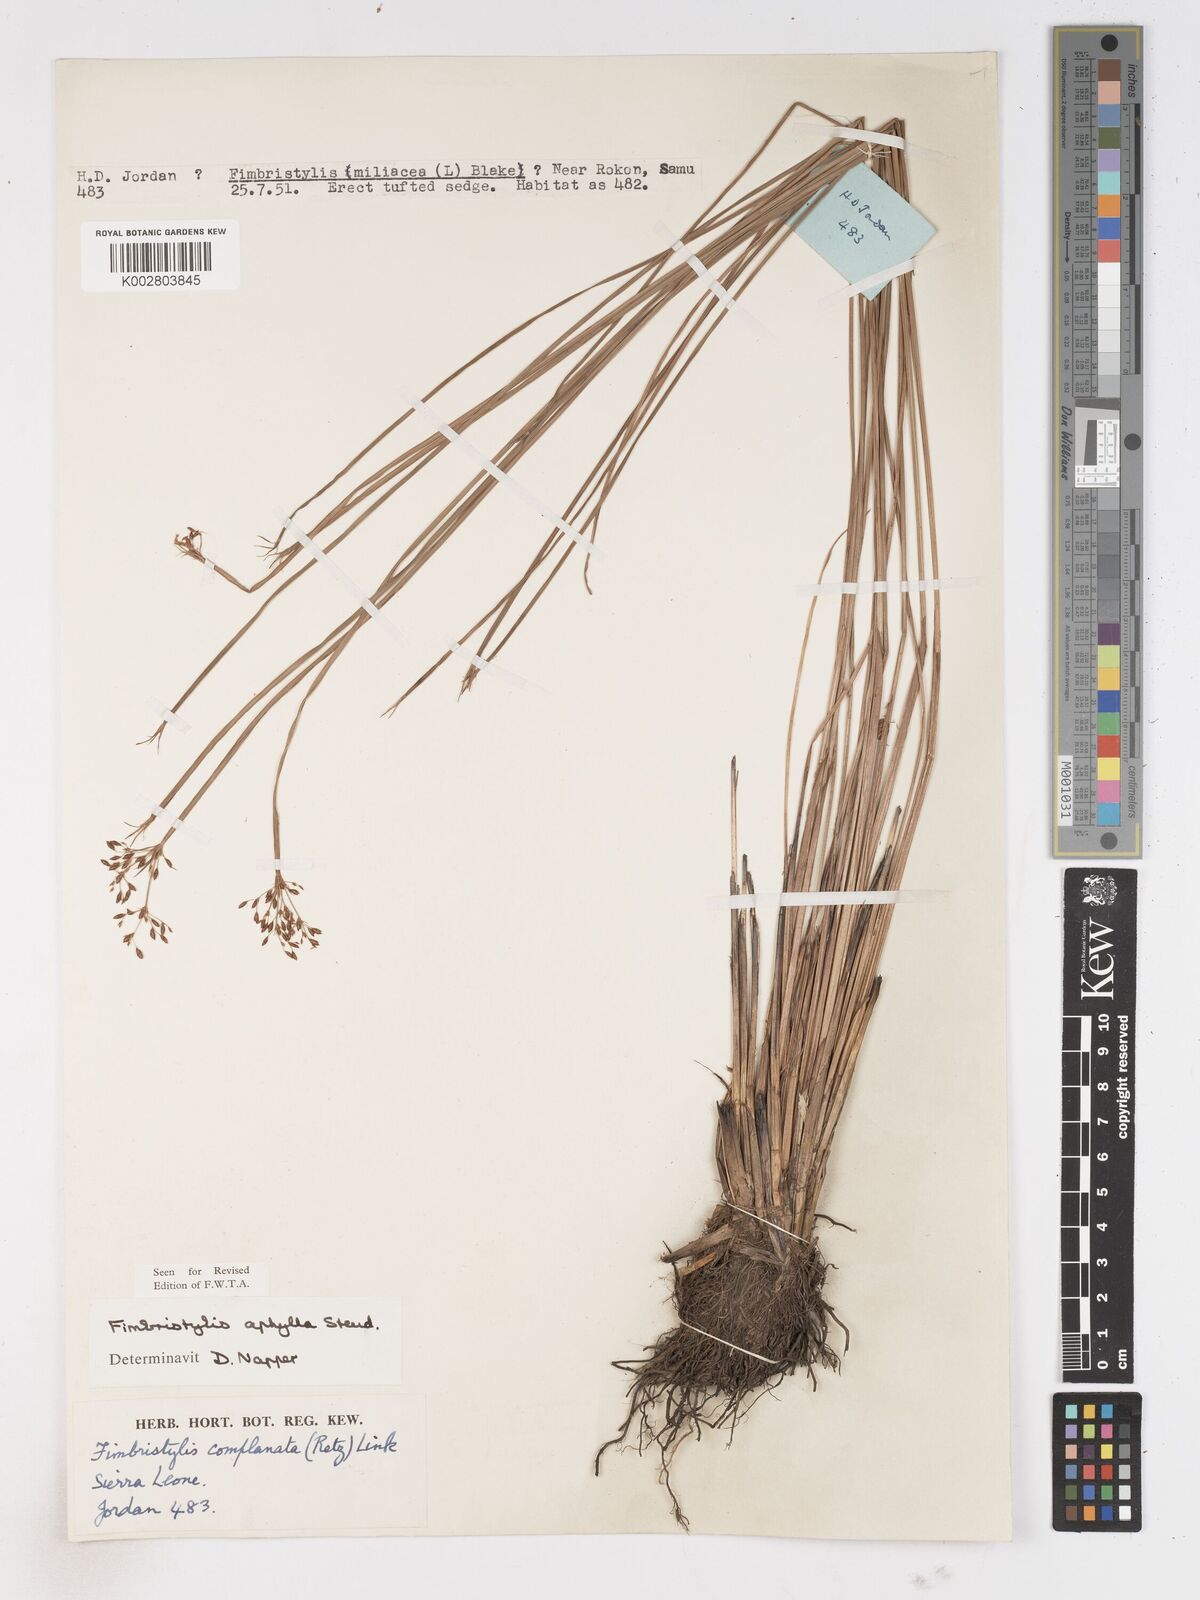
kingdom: Plantae
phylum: Tracheophyta
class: Liliopsida
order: Poales
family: Cyperaceae
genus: Fimbristylis
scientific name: Fimbristylis aphylla
